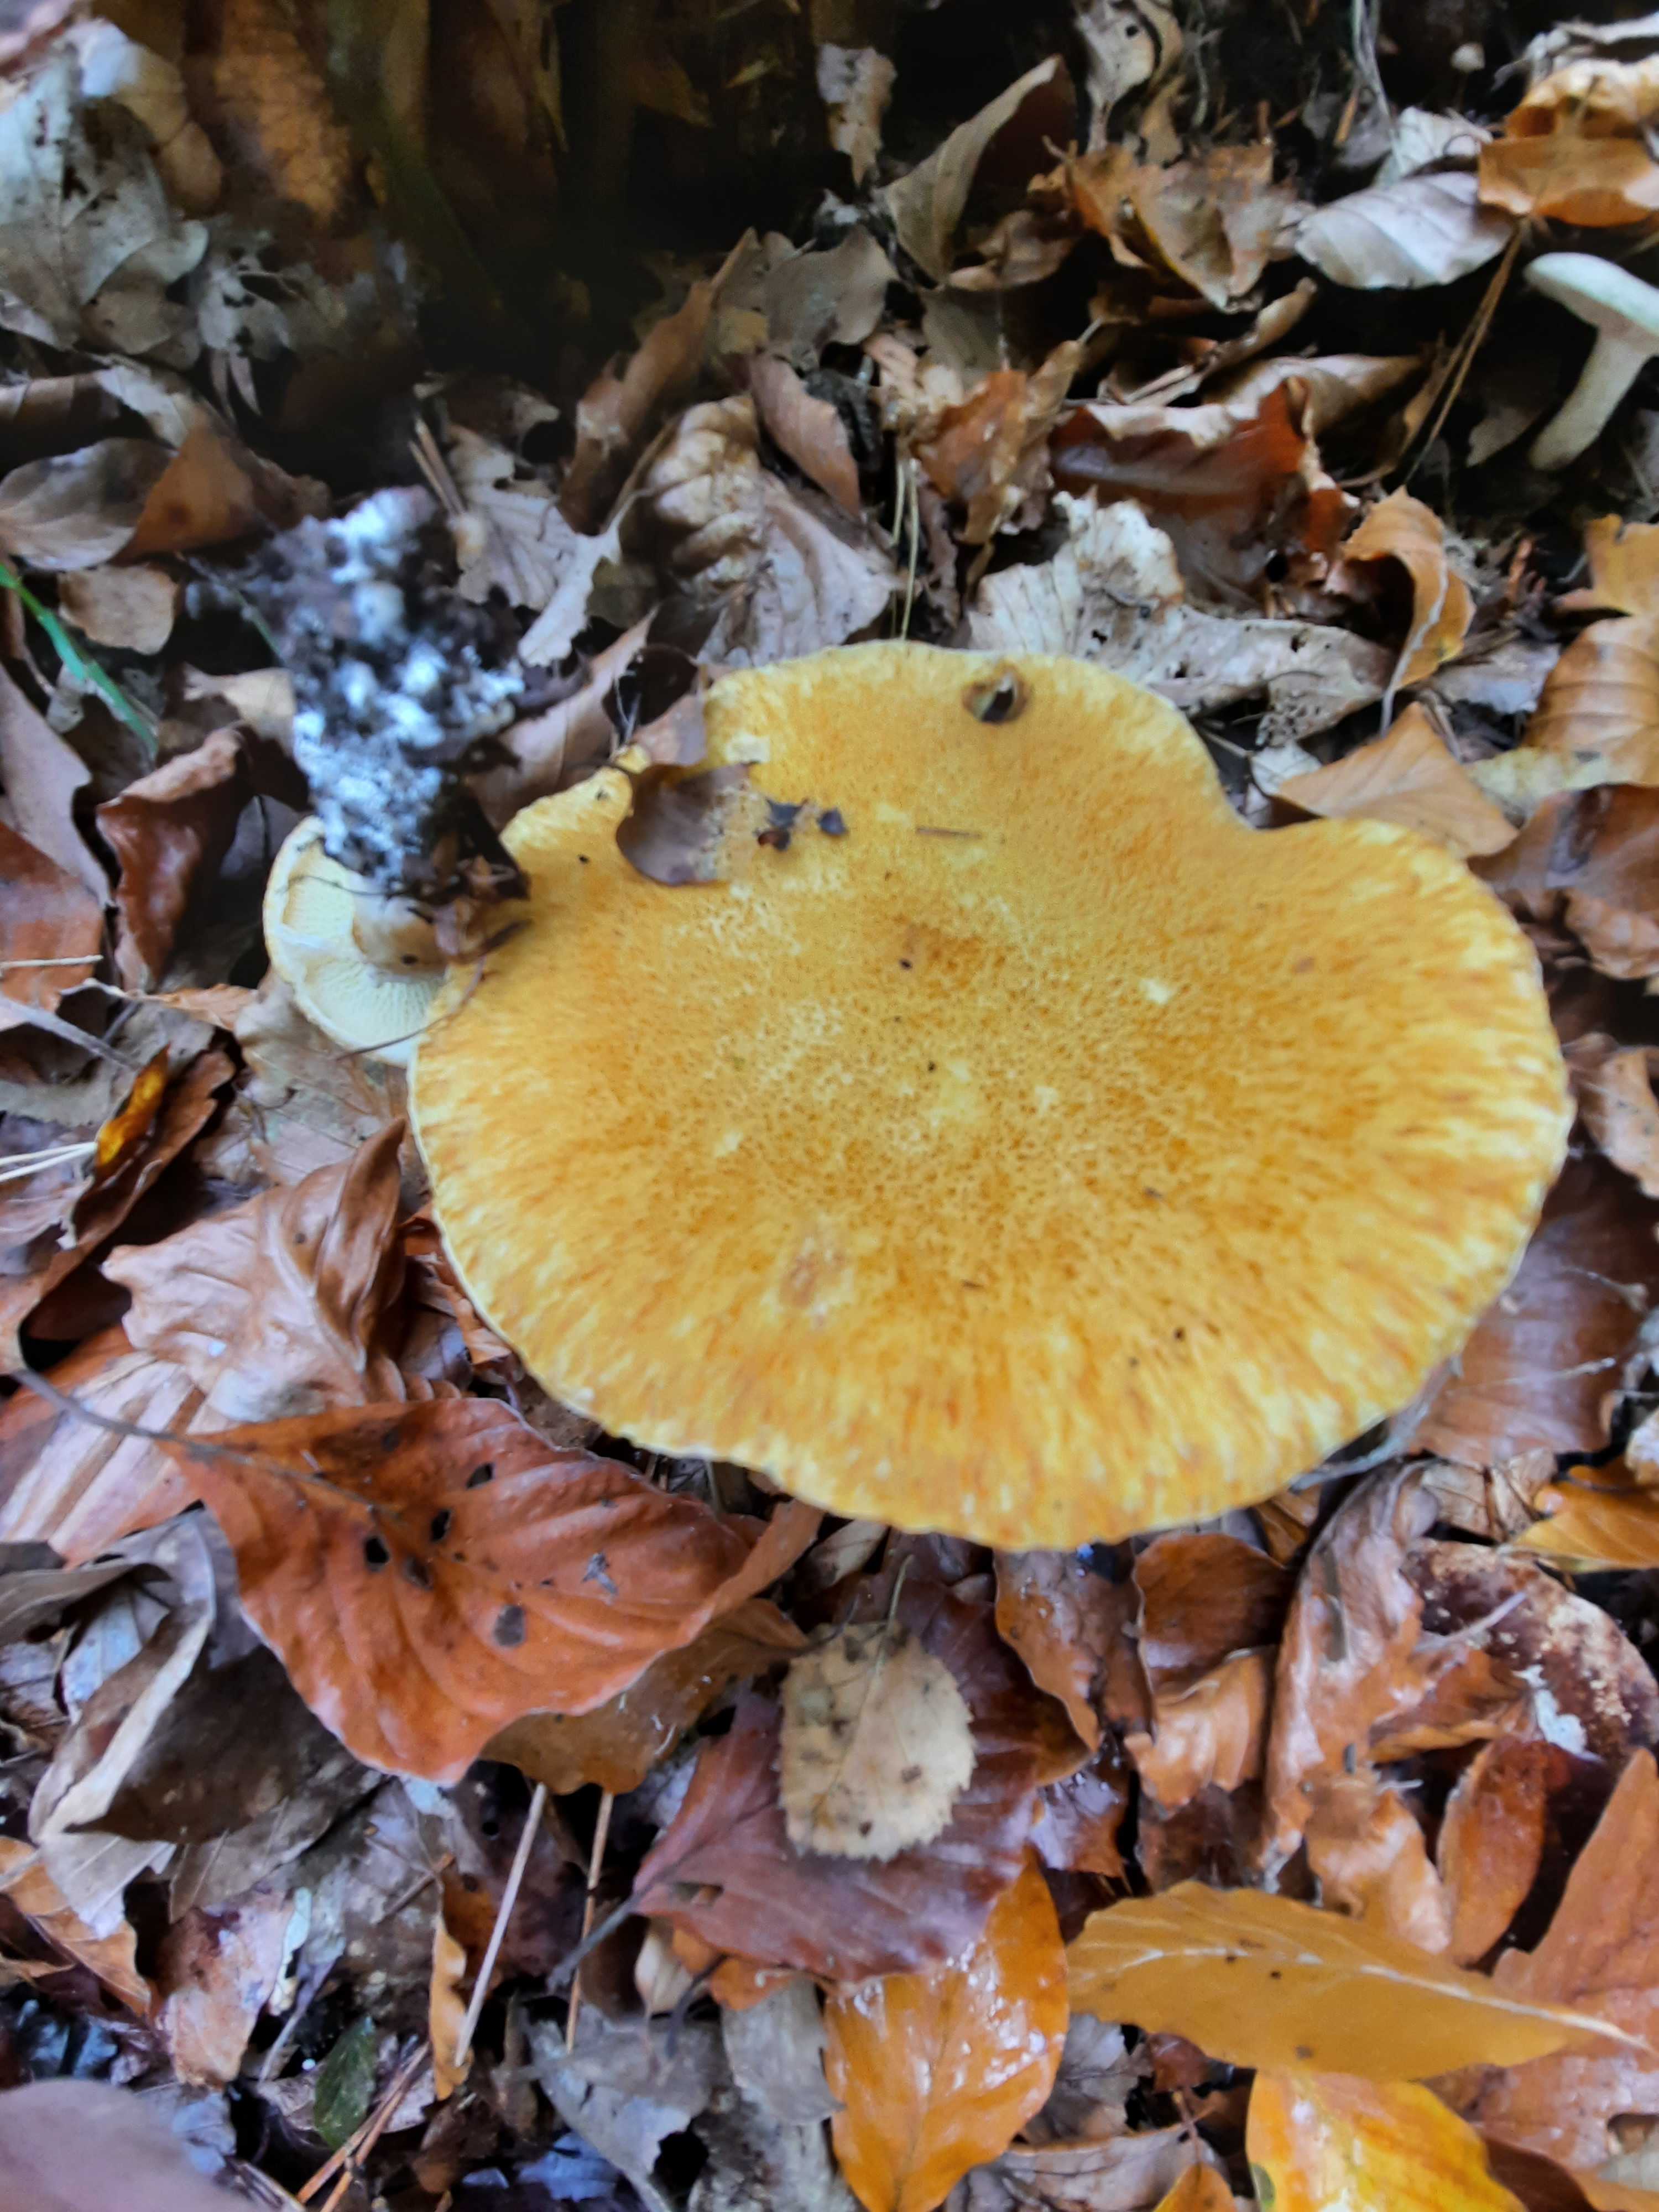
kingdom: Fungi
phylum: Basidiomycota
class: Agaricomycetes
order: Boletales
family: Suillaceae
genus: Suillus
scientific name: Suillus cavipes
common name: hulstokket slimrørhat, gul form
